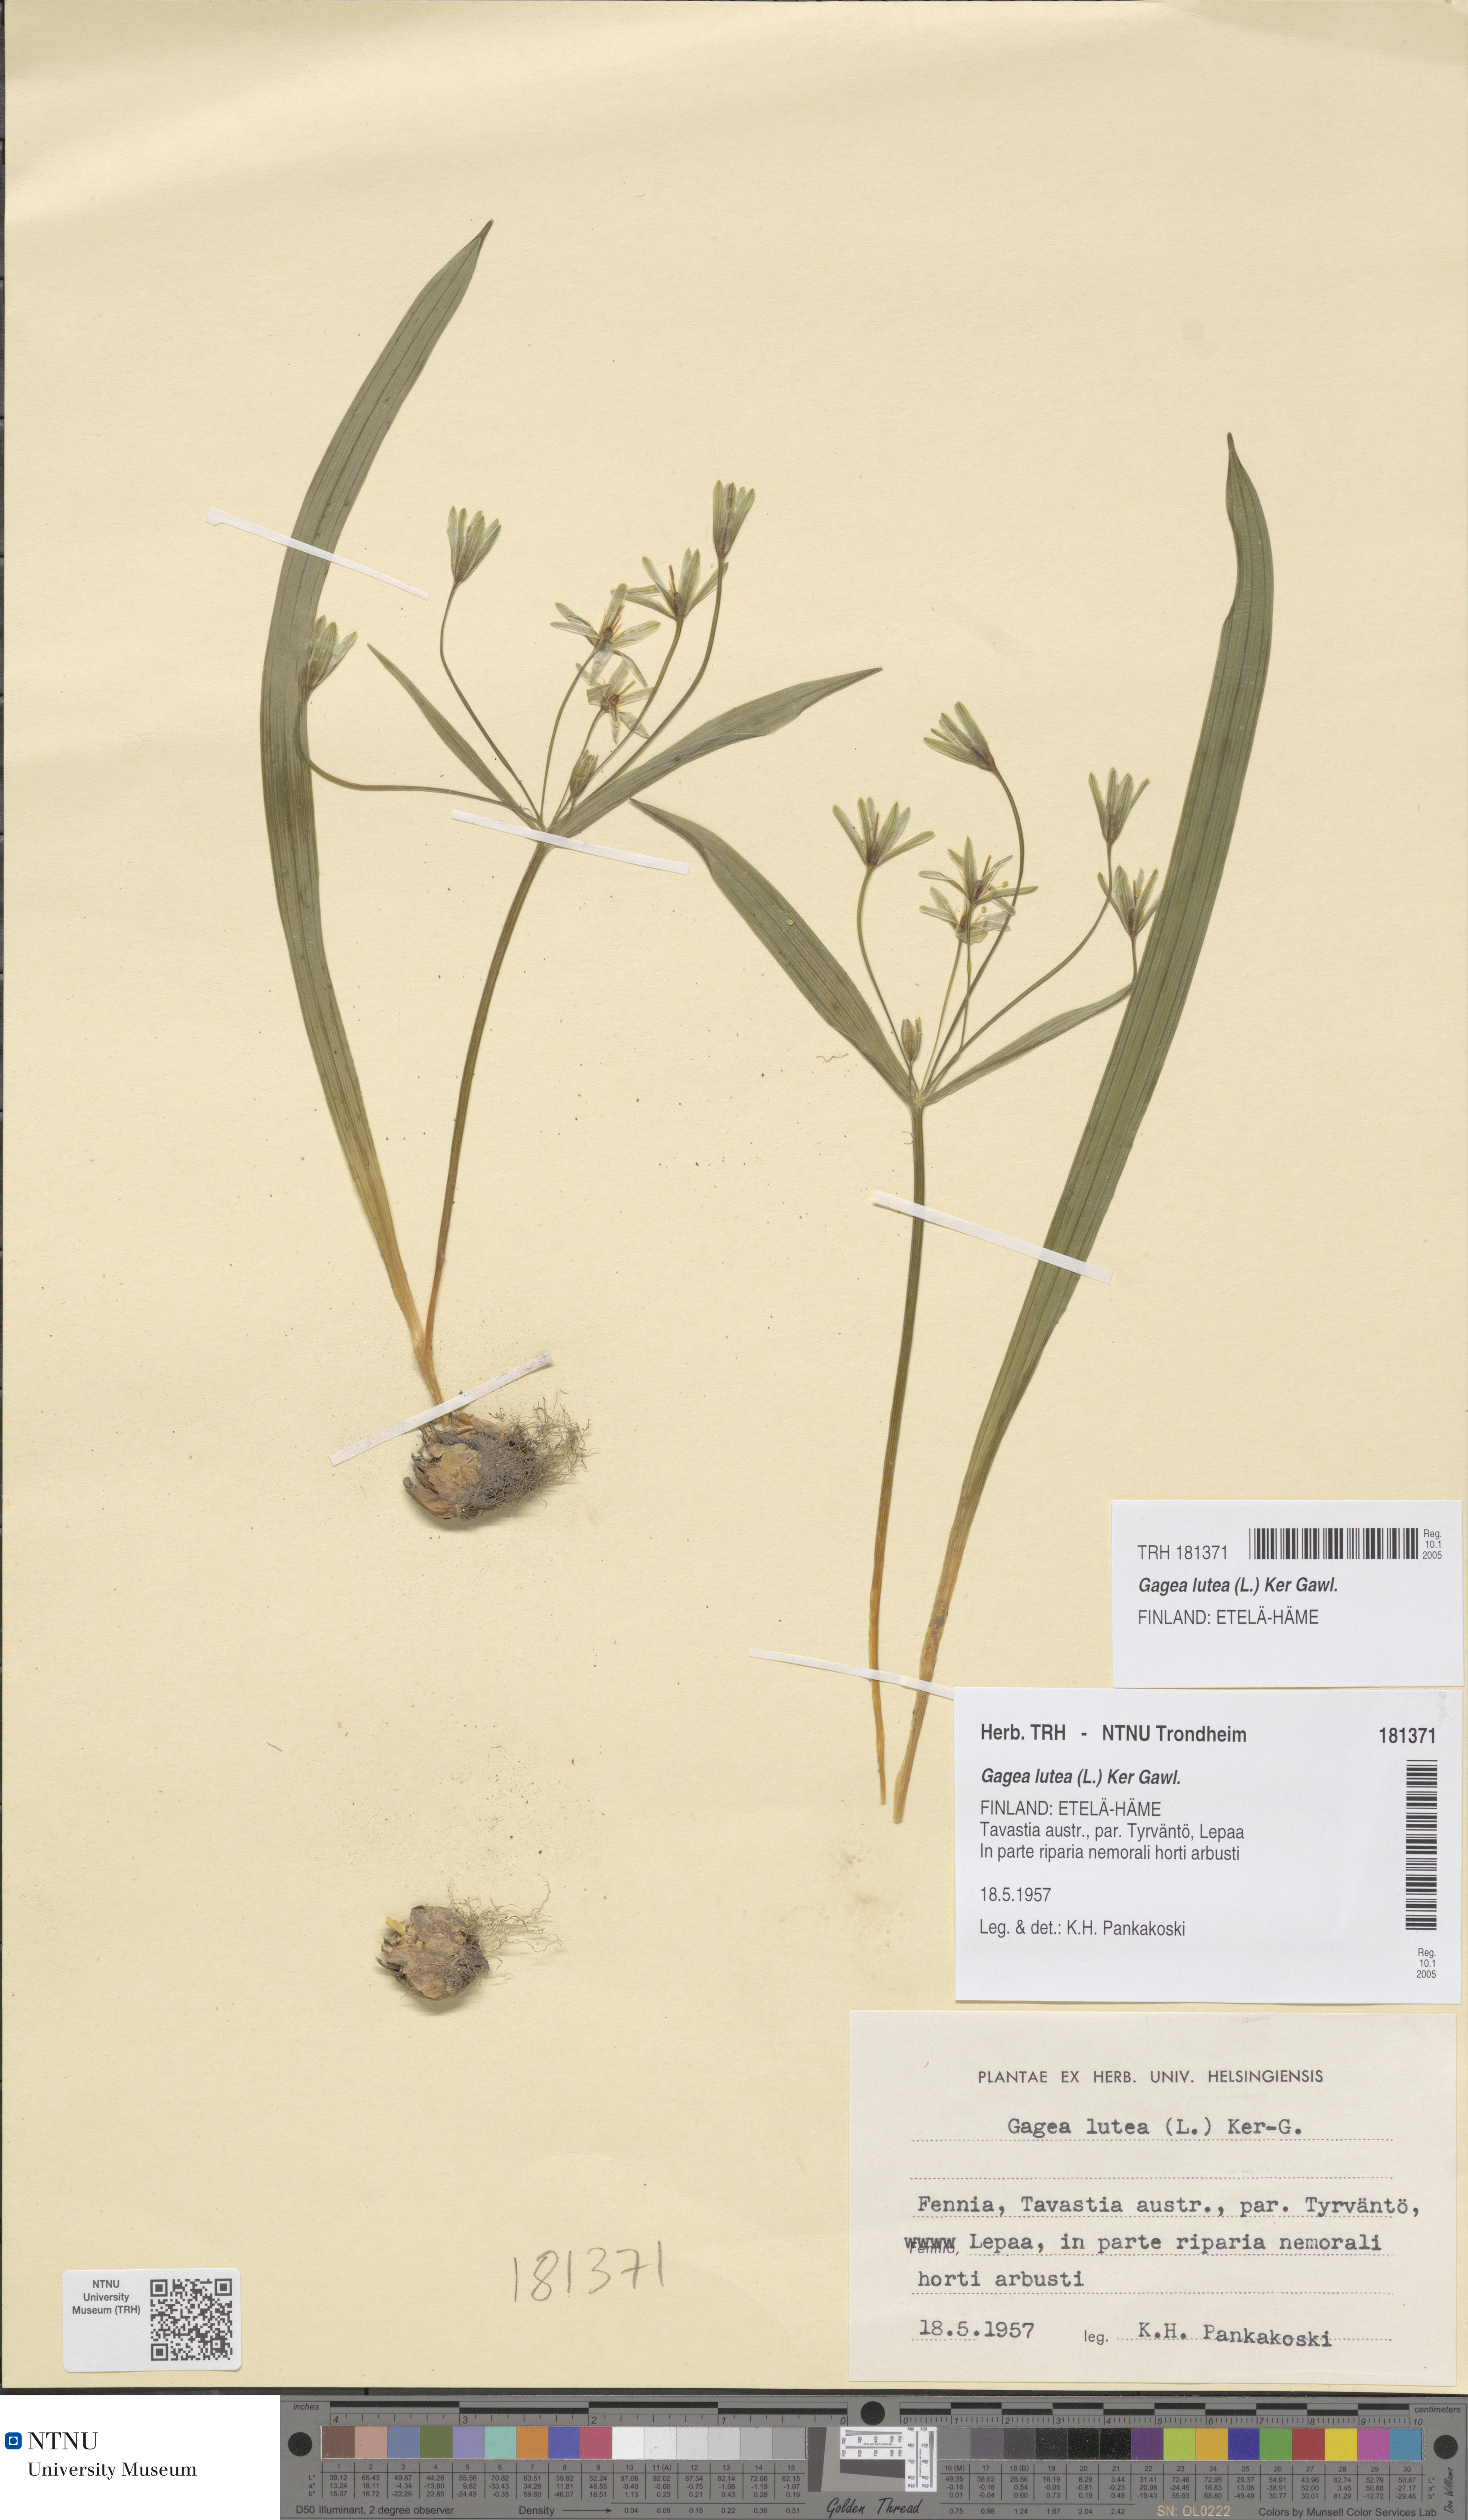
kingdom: Plantae
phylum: Tracheophyta
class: Liliopsida
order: Liliales
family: Liliaceae
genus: Gagea
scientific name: Gagea lutea
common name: Yellow star-of-bethlehem
